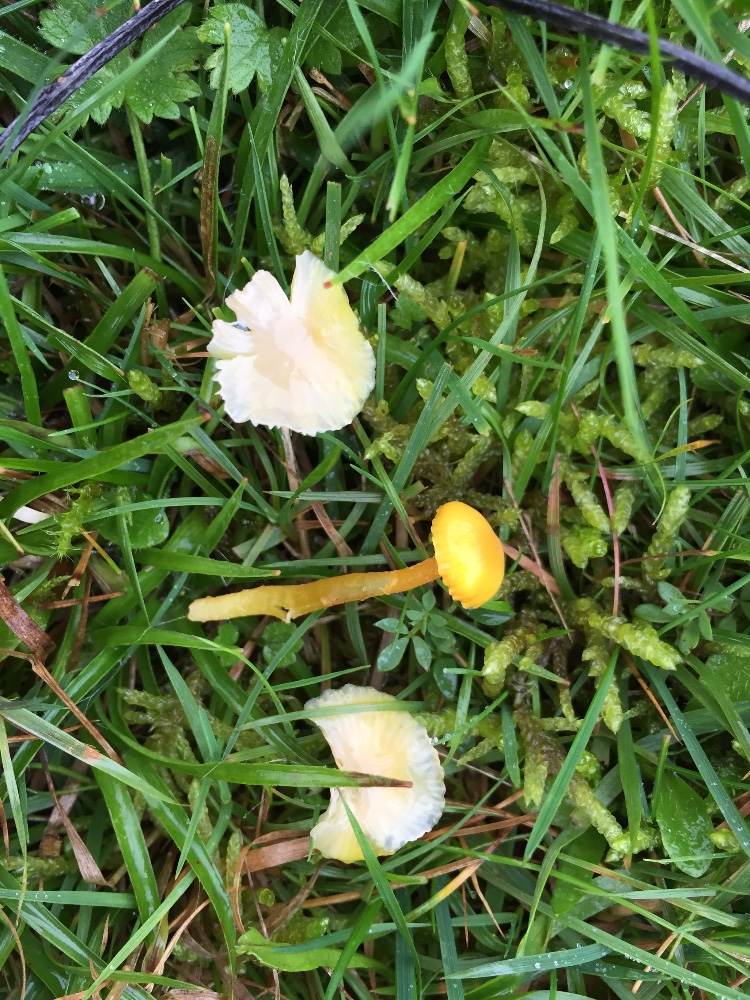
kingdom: Fungi
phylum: Basidiomycota
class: Agaricomycetes
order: Agaricales
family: Hygrophoraceae
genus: Hygrocybe
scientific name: Hygrocybe glutinipes
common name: slimstokket vokshat
